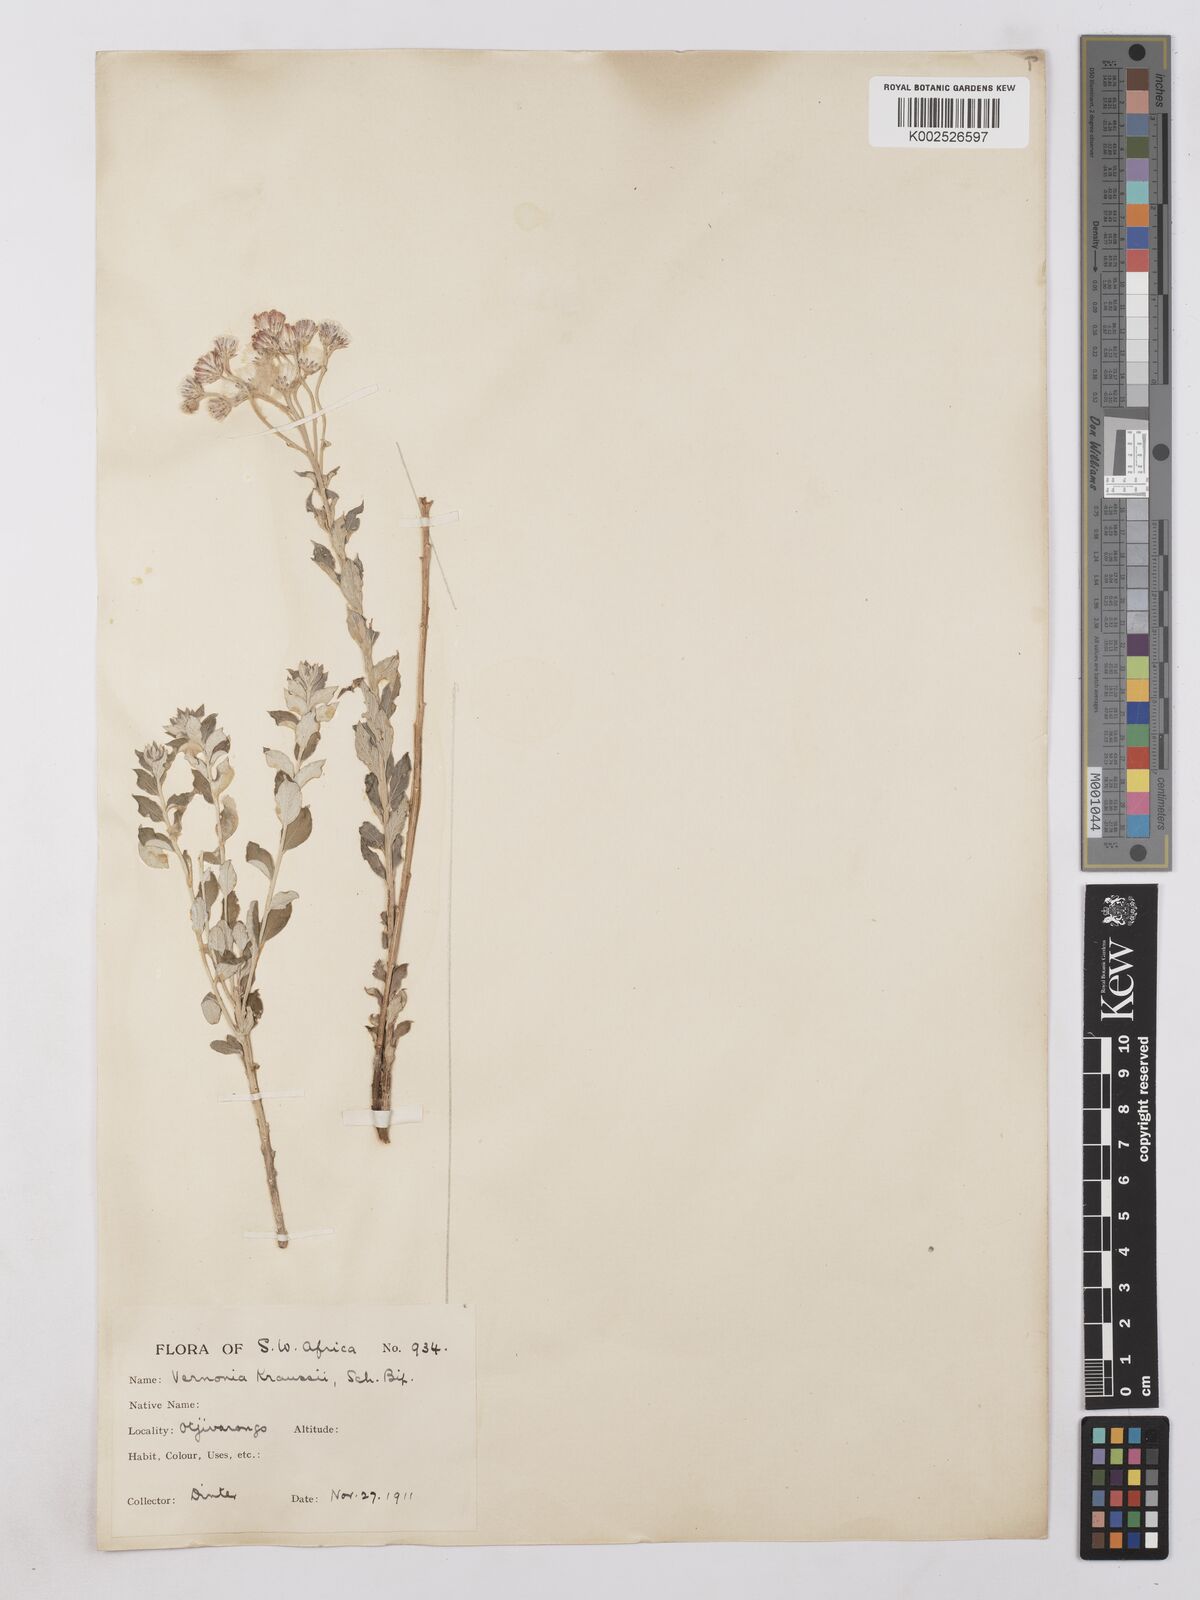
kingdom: Plantae
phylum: Tracheophyta
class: Magnoliopsida
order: Asterales
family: Asteraceae
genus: Lepidaploa
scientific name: Lepidaploa aurea
